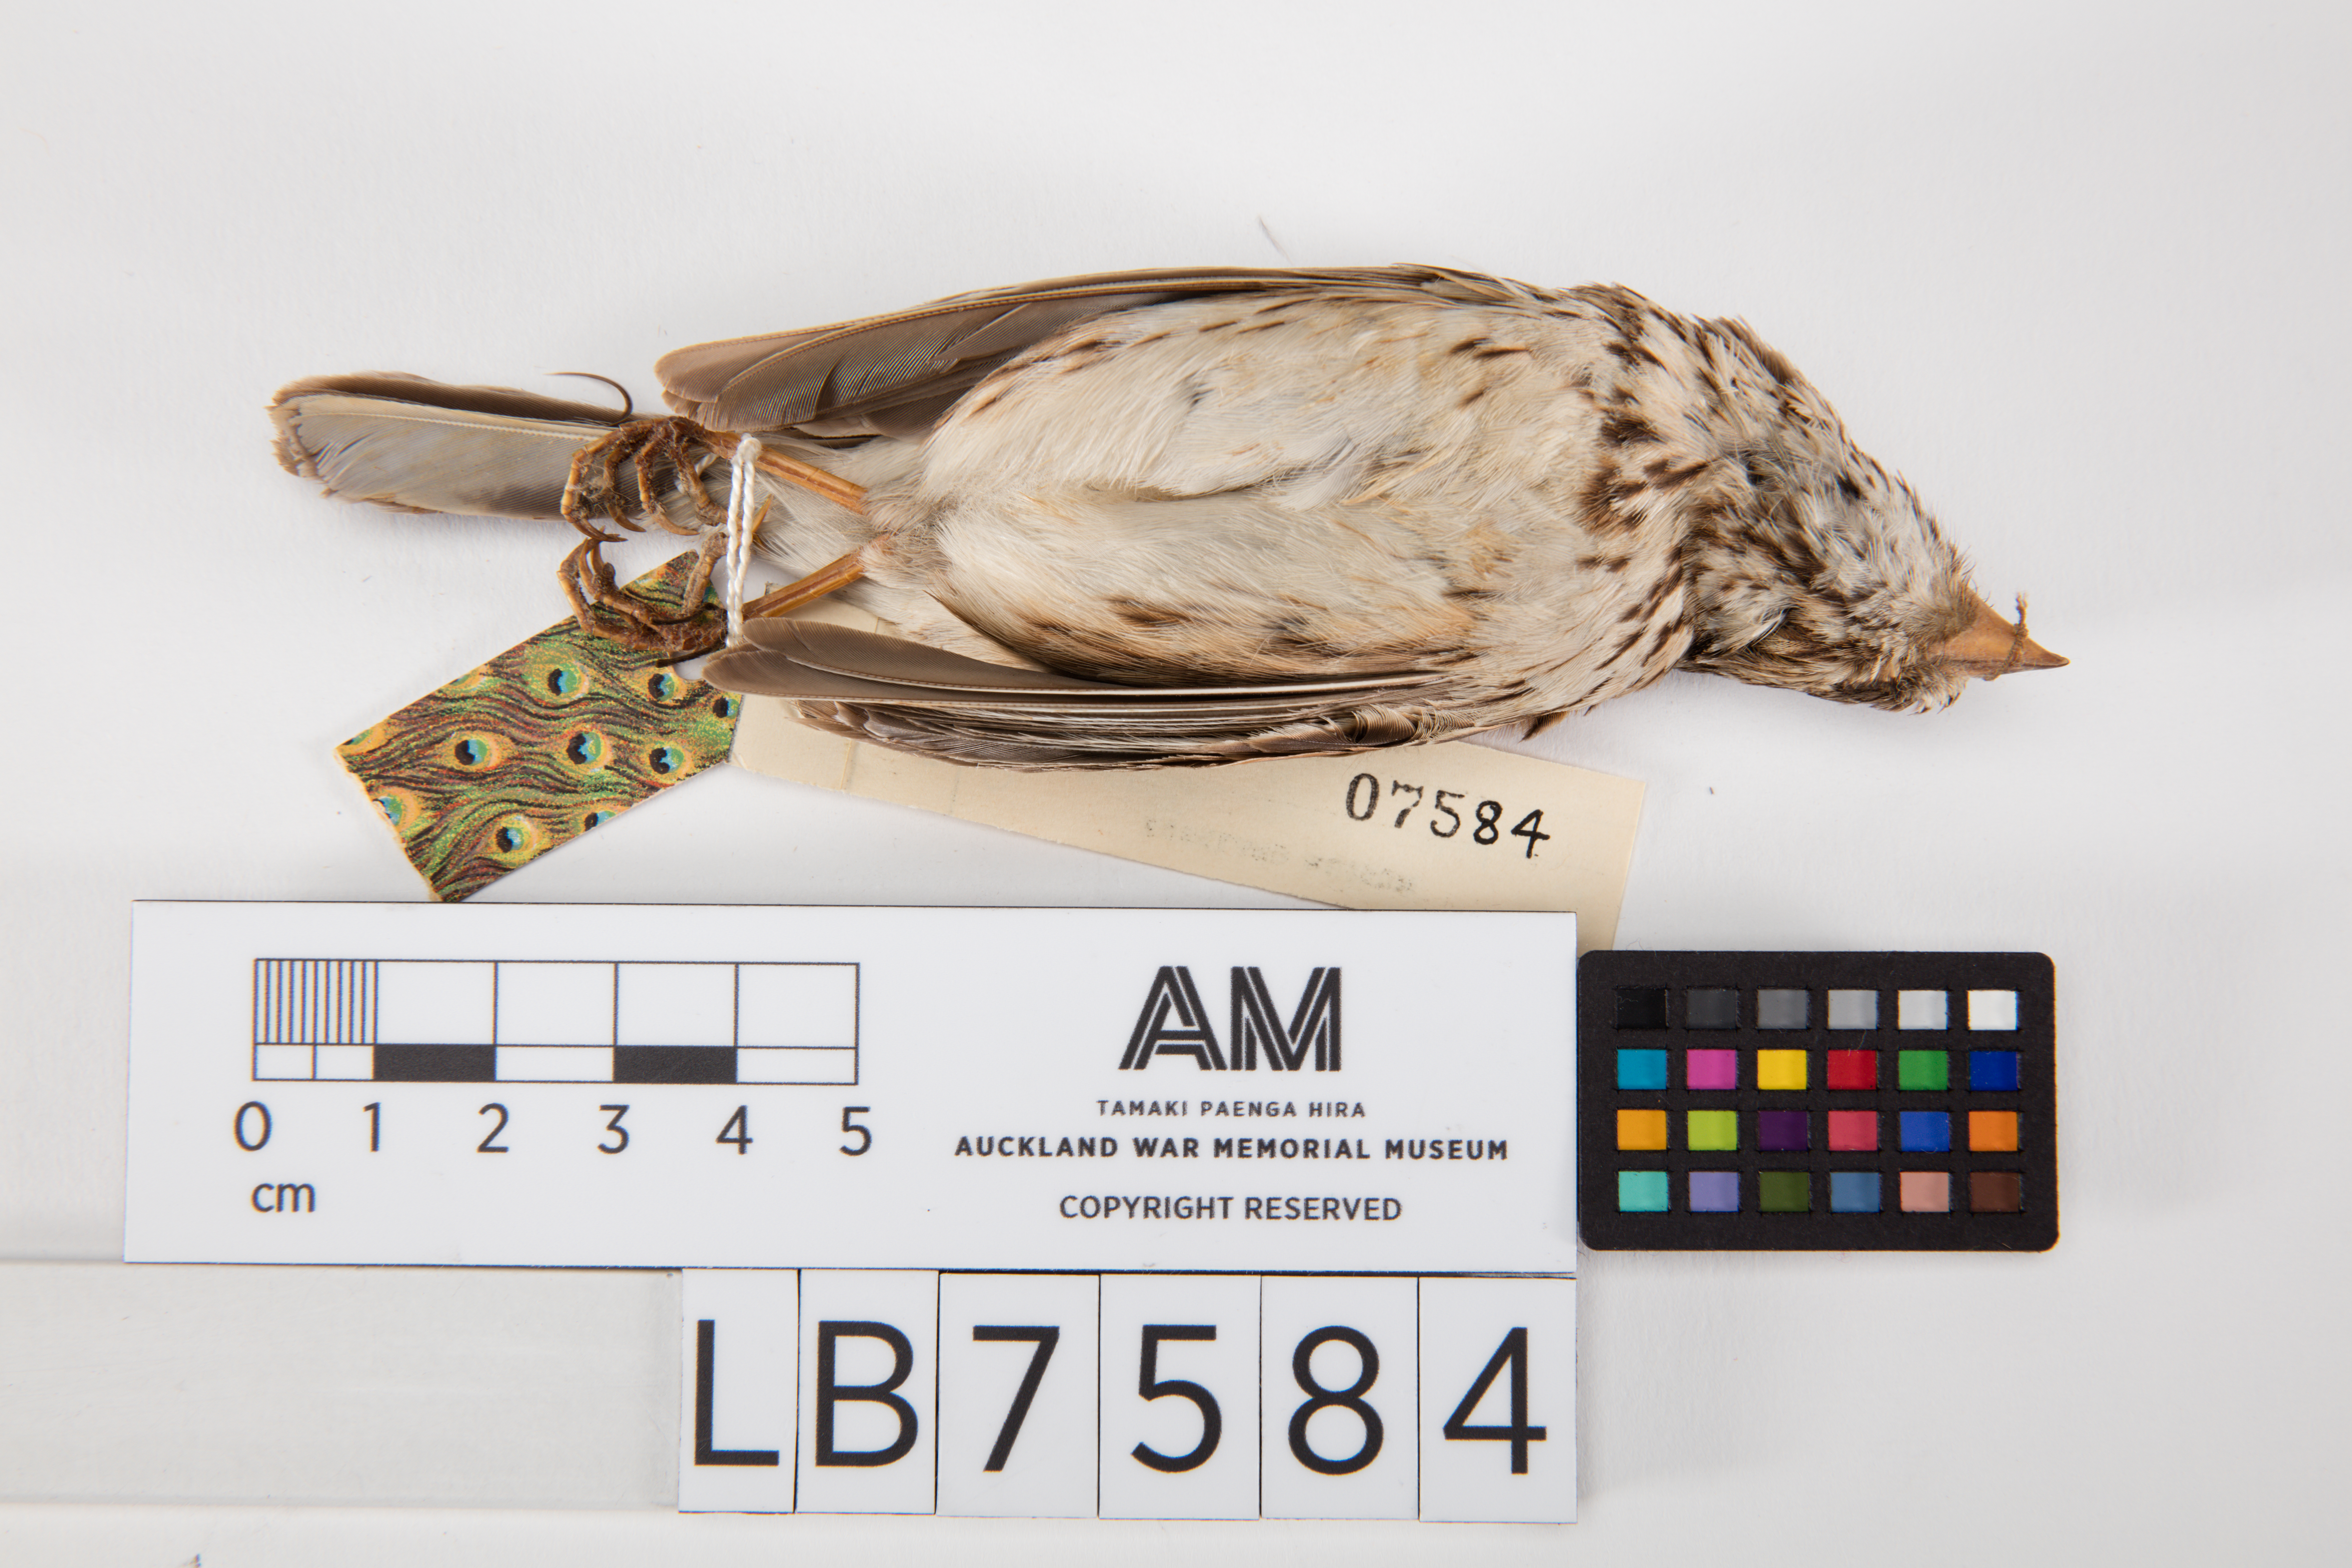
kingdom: Animalia
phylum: Chordata
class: Aves
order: Passeriformes
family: Passerellidae
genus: Pooecetes
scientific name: Pooecetes gramineus
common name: Vesper sparrow
